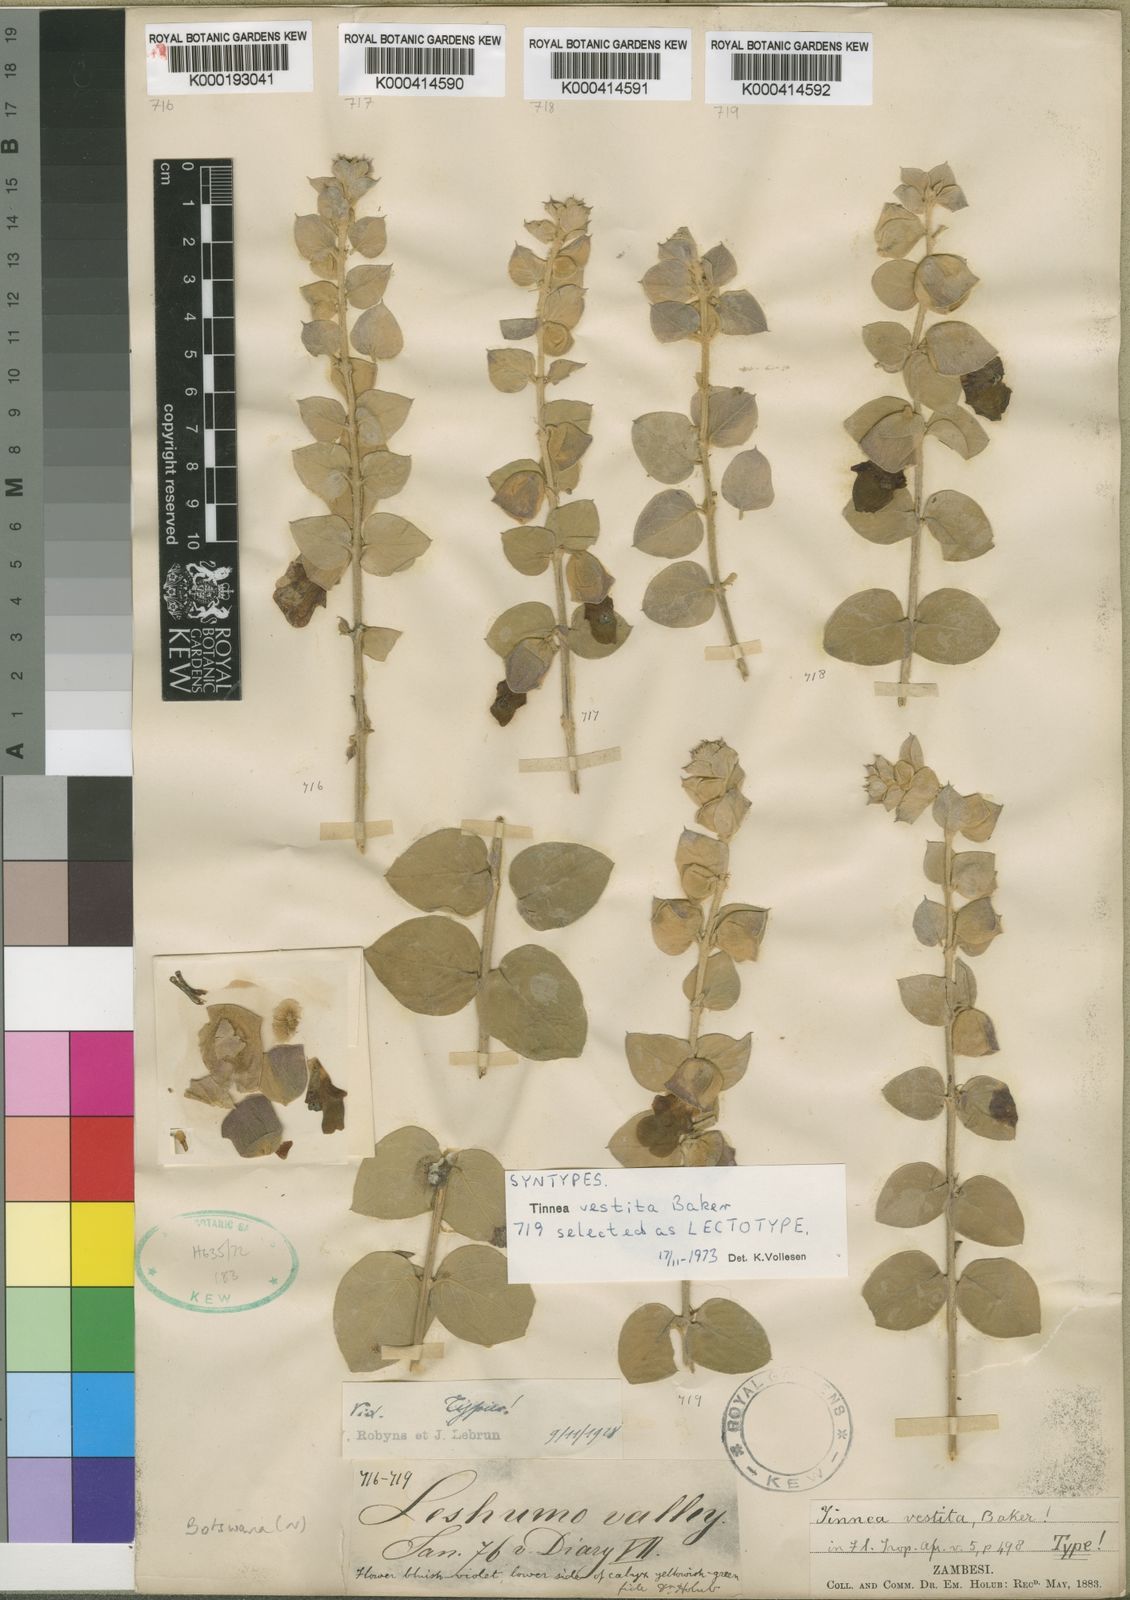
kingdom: Plantae
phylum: Tracheophyta
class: Magnoliopsida
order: Lamiales
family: Lamiaceae
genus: Tinnea
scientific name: Tinnea vestita
